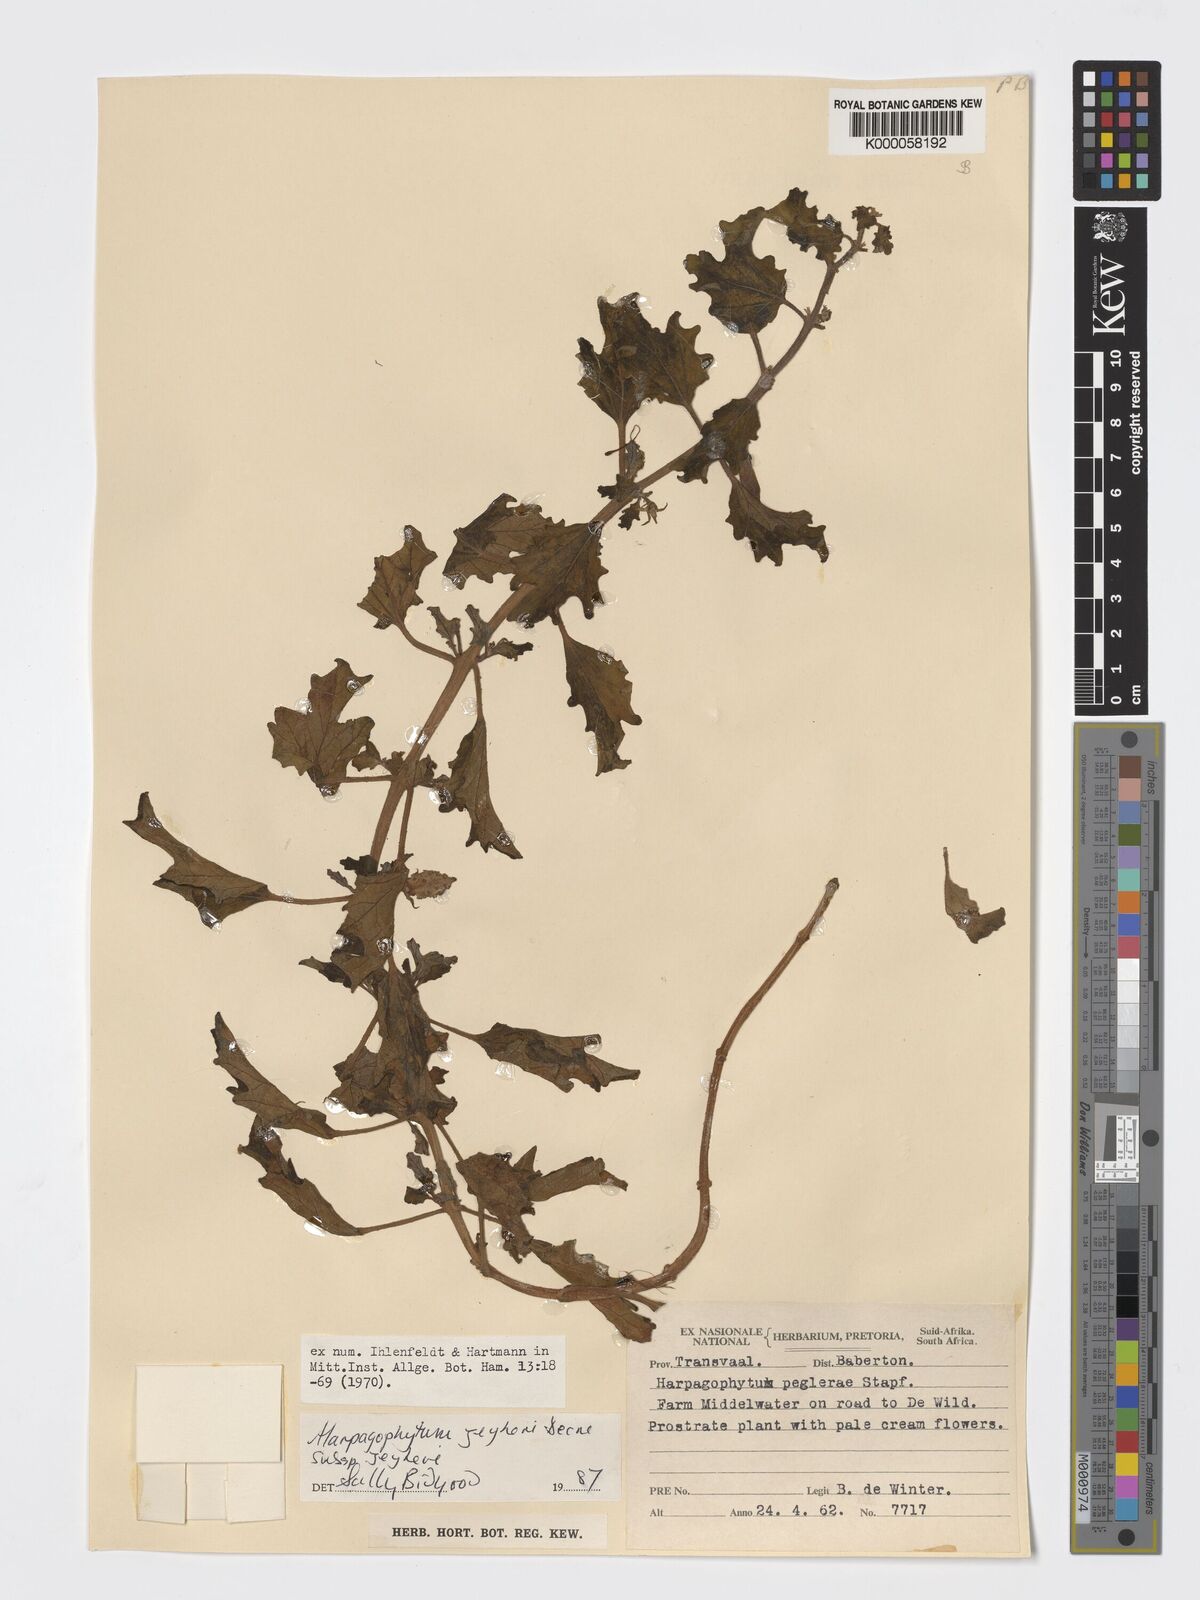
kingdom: Plantae
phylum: Tracheophyta
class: Magnoliopsida
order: Lamiales
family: Pedaliaceae
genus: Harpagophytum
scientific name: Harpagophytum zeyheri
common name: Grappleplant
